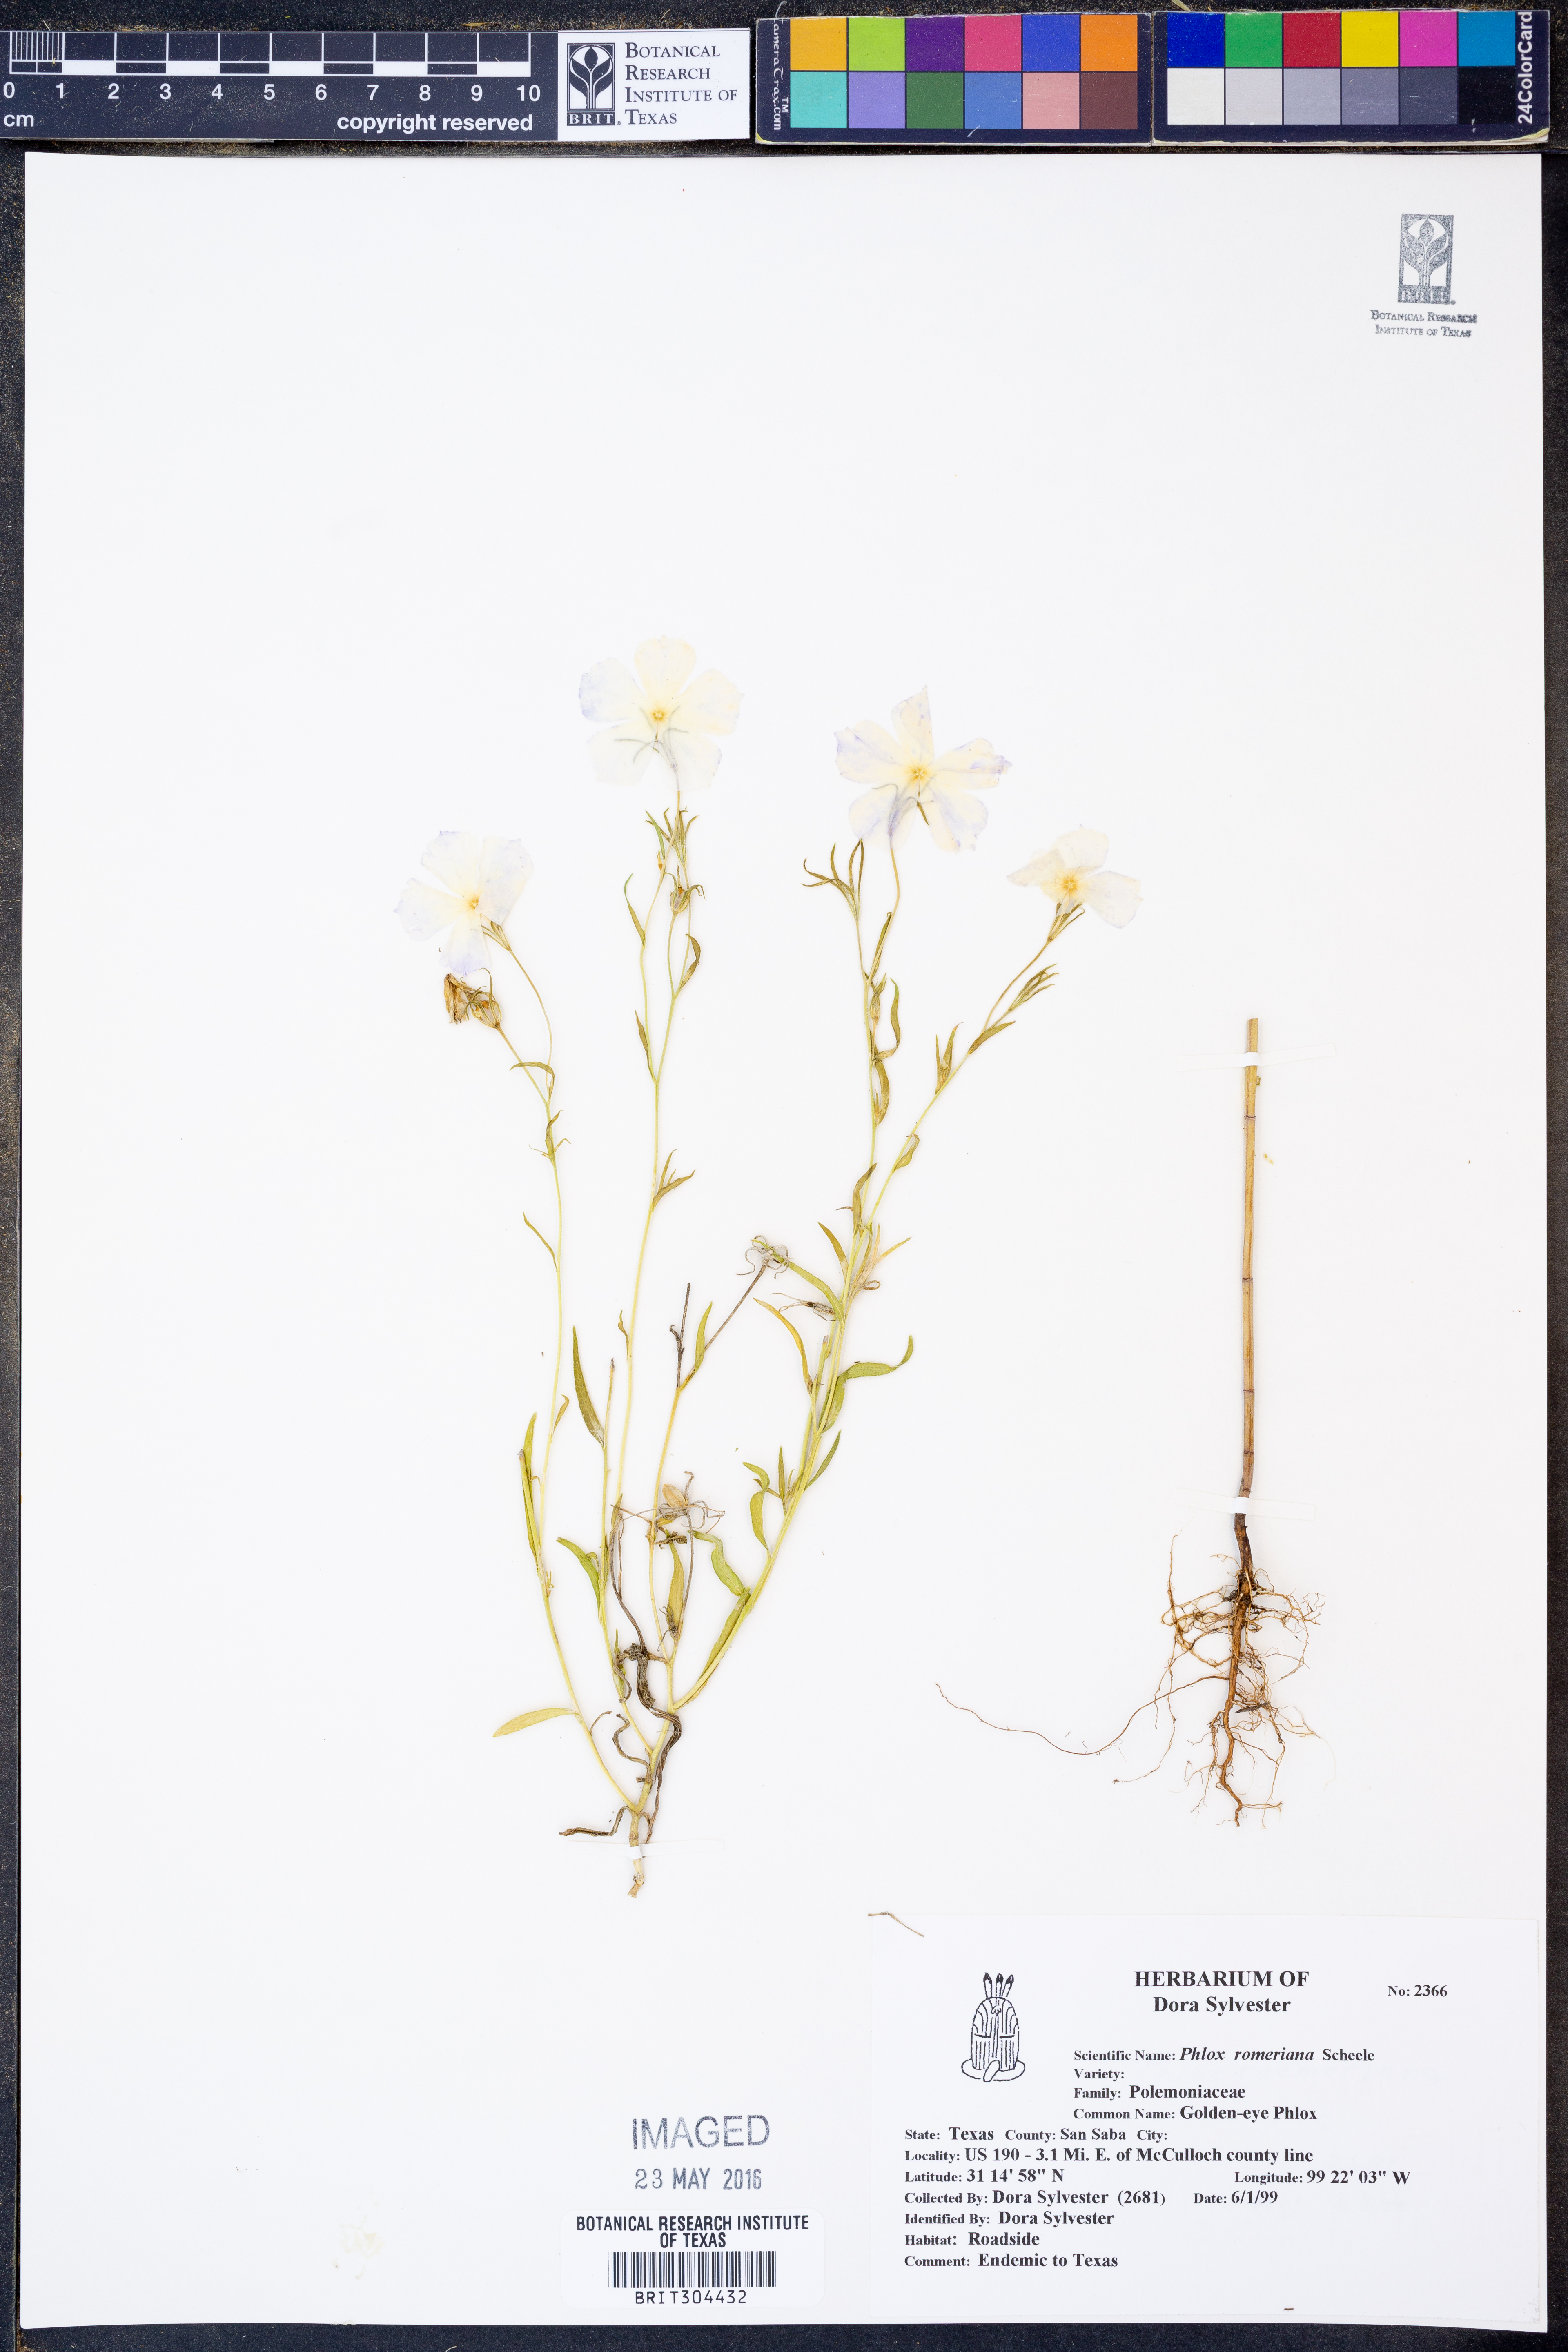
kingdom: Plantae
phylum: Tracheophyta
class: Magnoliopsida
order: Ericales
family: Polemoniaceae
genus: Phlox
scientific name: Phlox roemeriana
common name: Roemer's phlox
